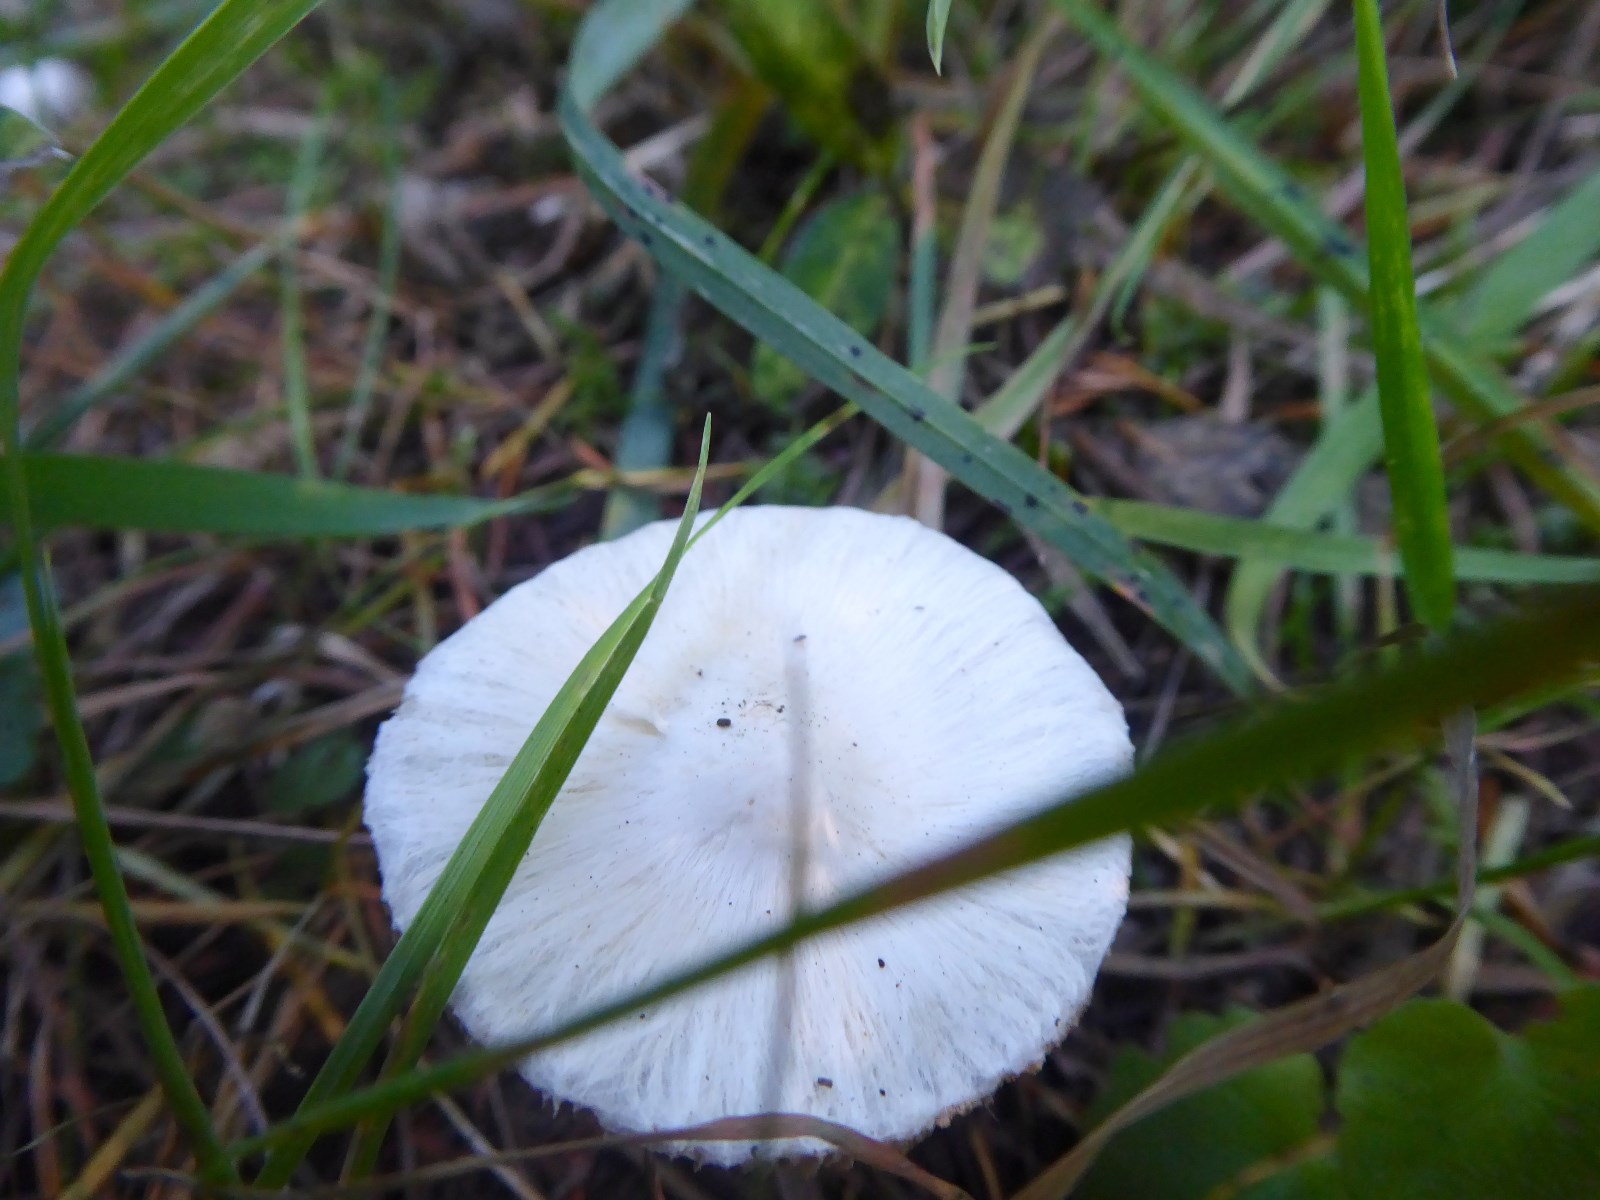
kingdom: Fungi
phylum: Basidiomycota
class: Agaricomycetes
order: Agaricales
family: Inocybaceae
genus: Inocybe
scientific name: Inocybe
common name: almindelig trævlhat
